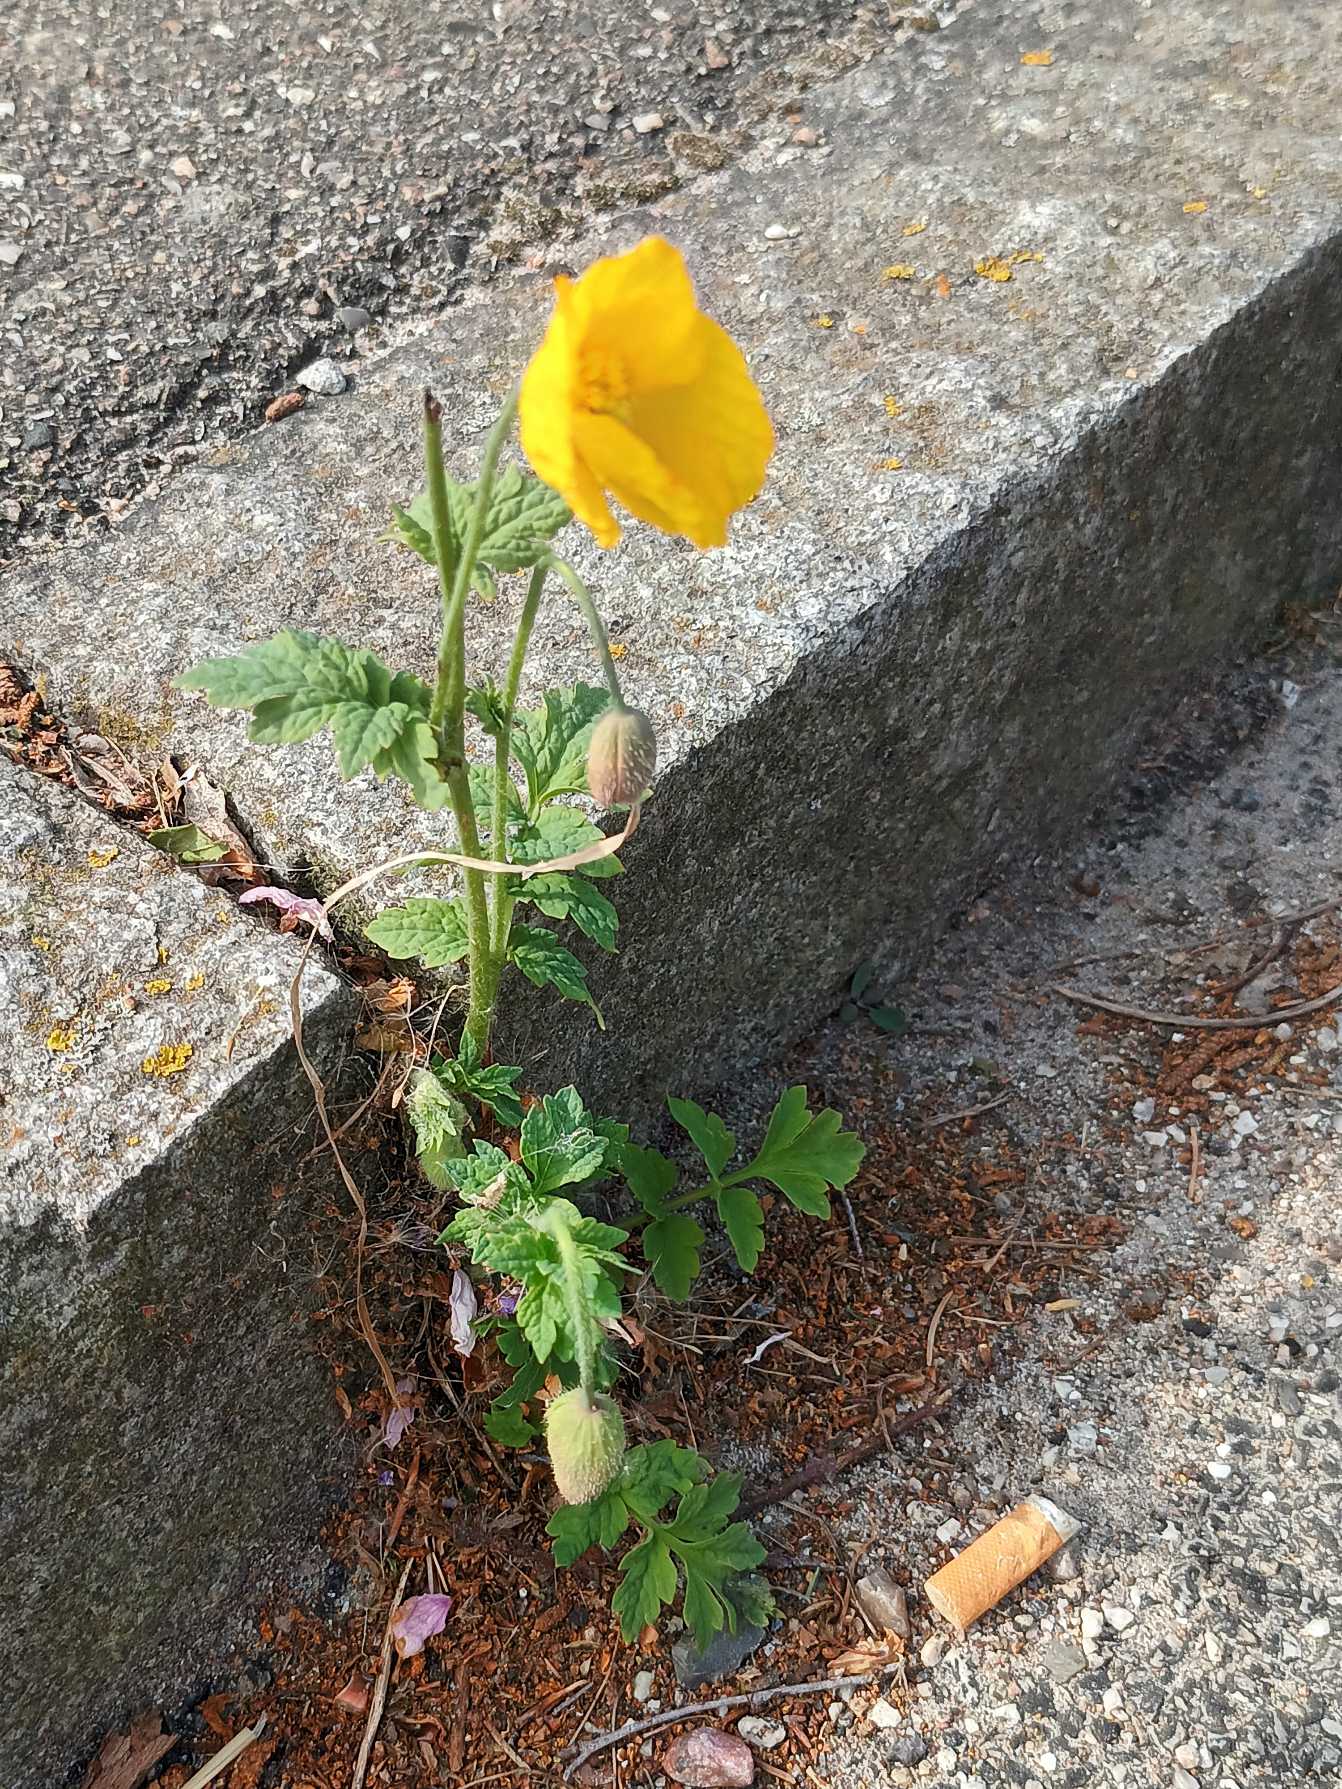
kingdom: Plantae
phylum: Tracheophyta
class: Magnoliopsida
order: Ranunculales
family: Papaveraceae
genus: Papaver
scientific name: Papaver cambricum
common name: Skov-valmue
